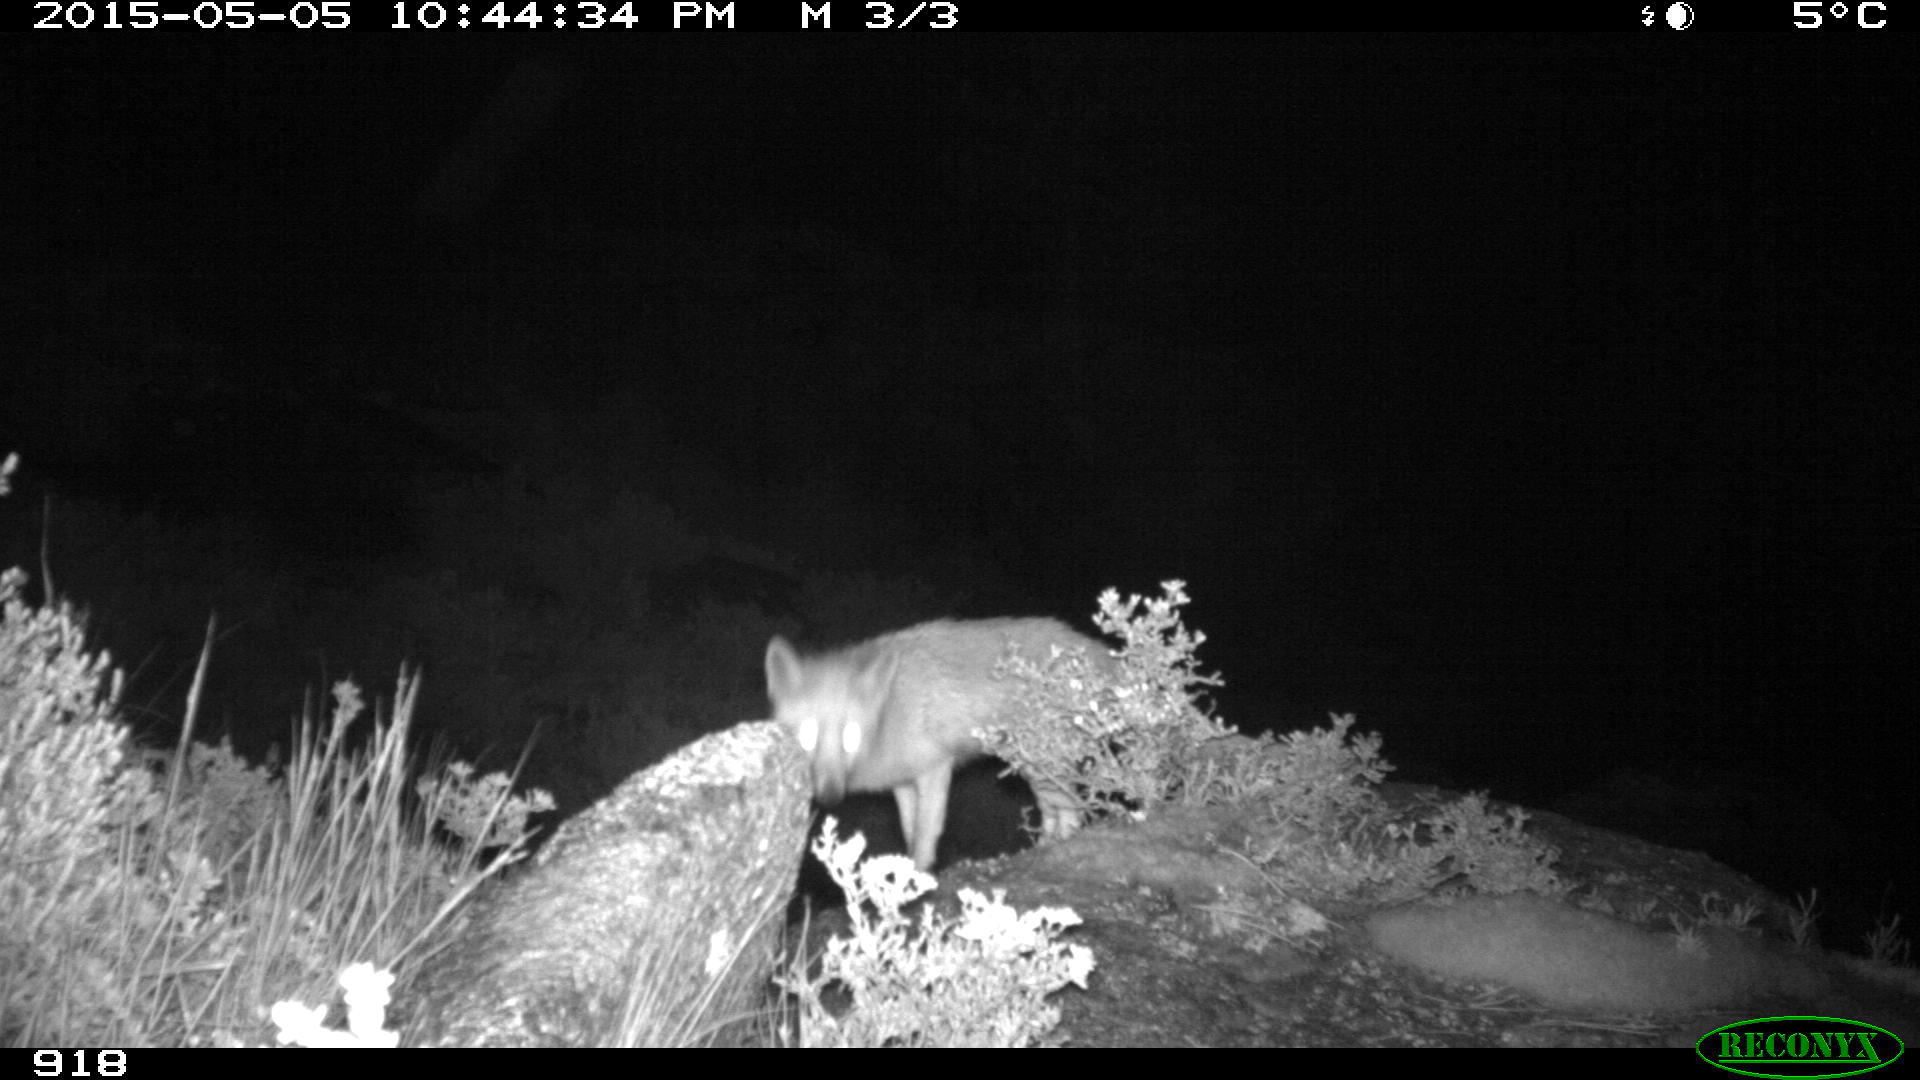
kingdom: Animalia
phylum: Chordata
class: Mammalia
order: Carnivora
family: Canidae
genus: Vulpes
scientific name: Vulpes vulpes
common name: Red fox
